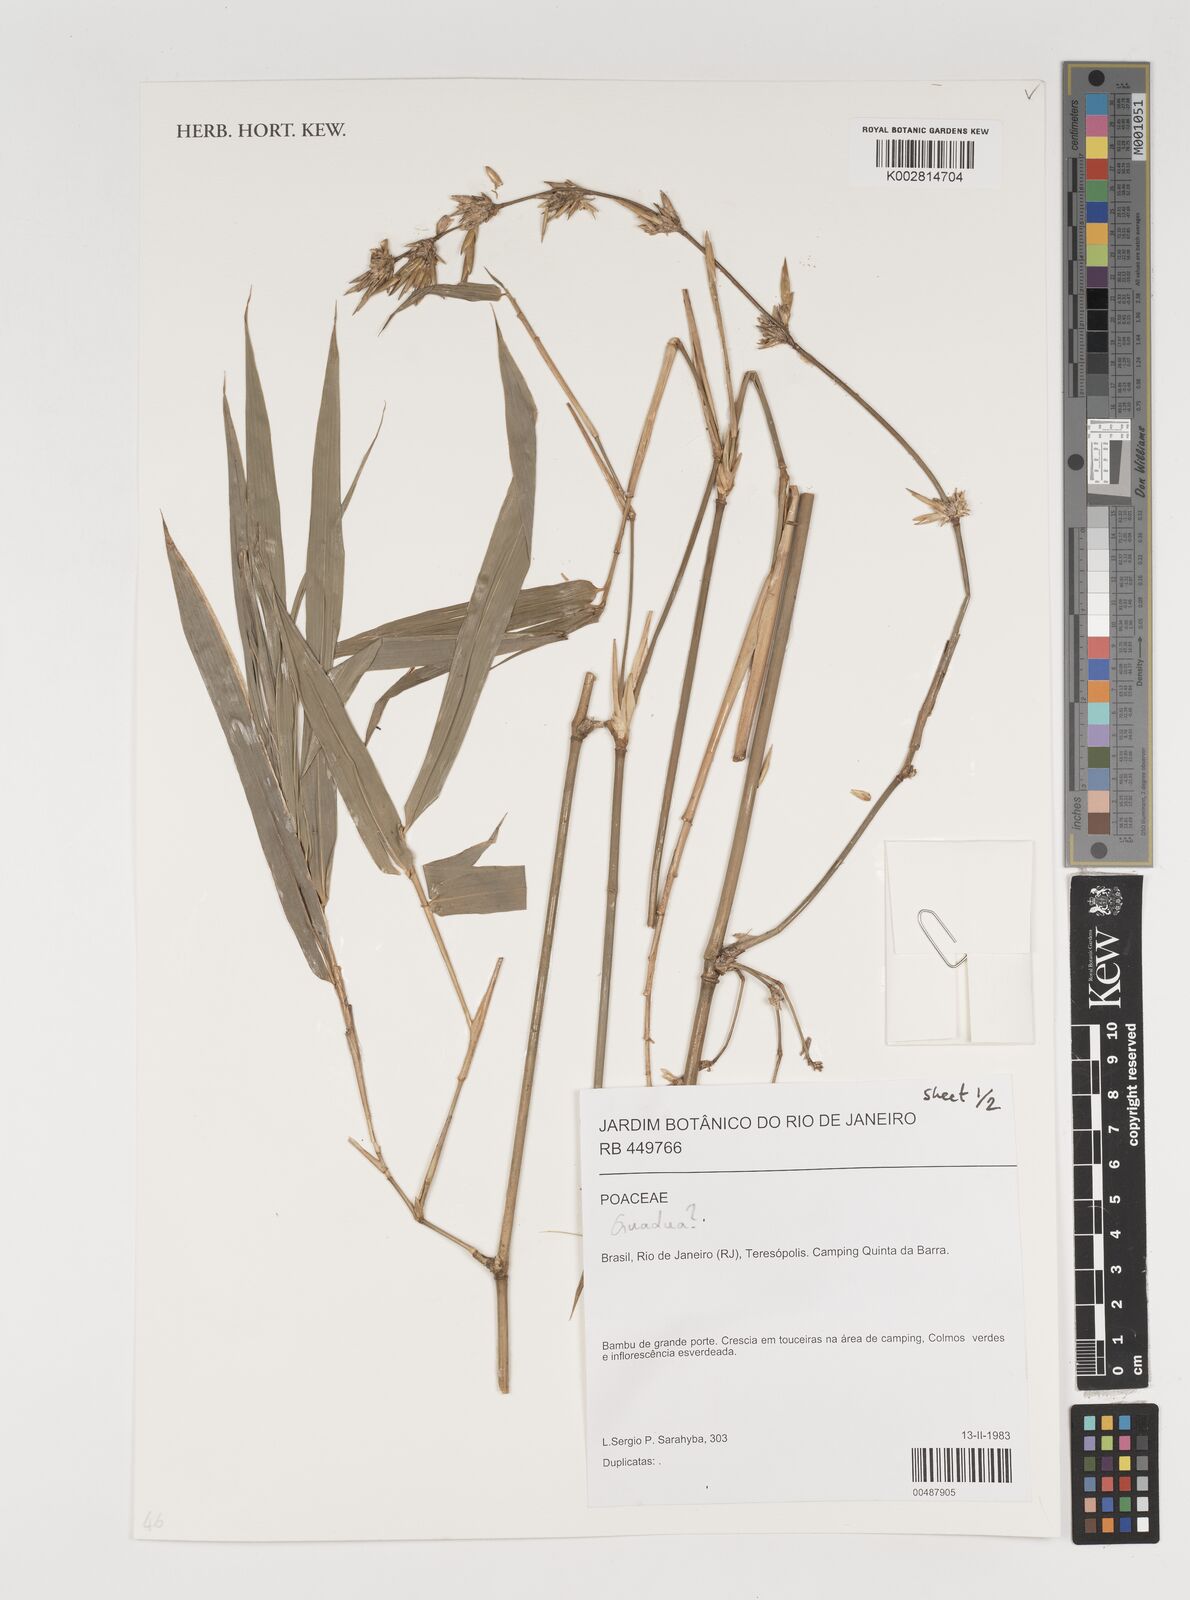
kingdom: Plantae
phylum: Tracheophyta
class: Liliopsida
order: Poales
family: Poaceae
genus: Guadua
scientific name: Guadua
